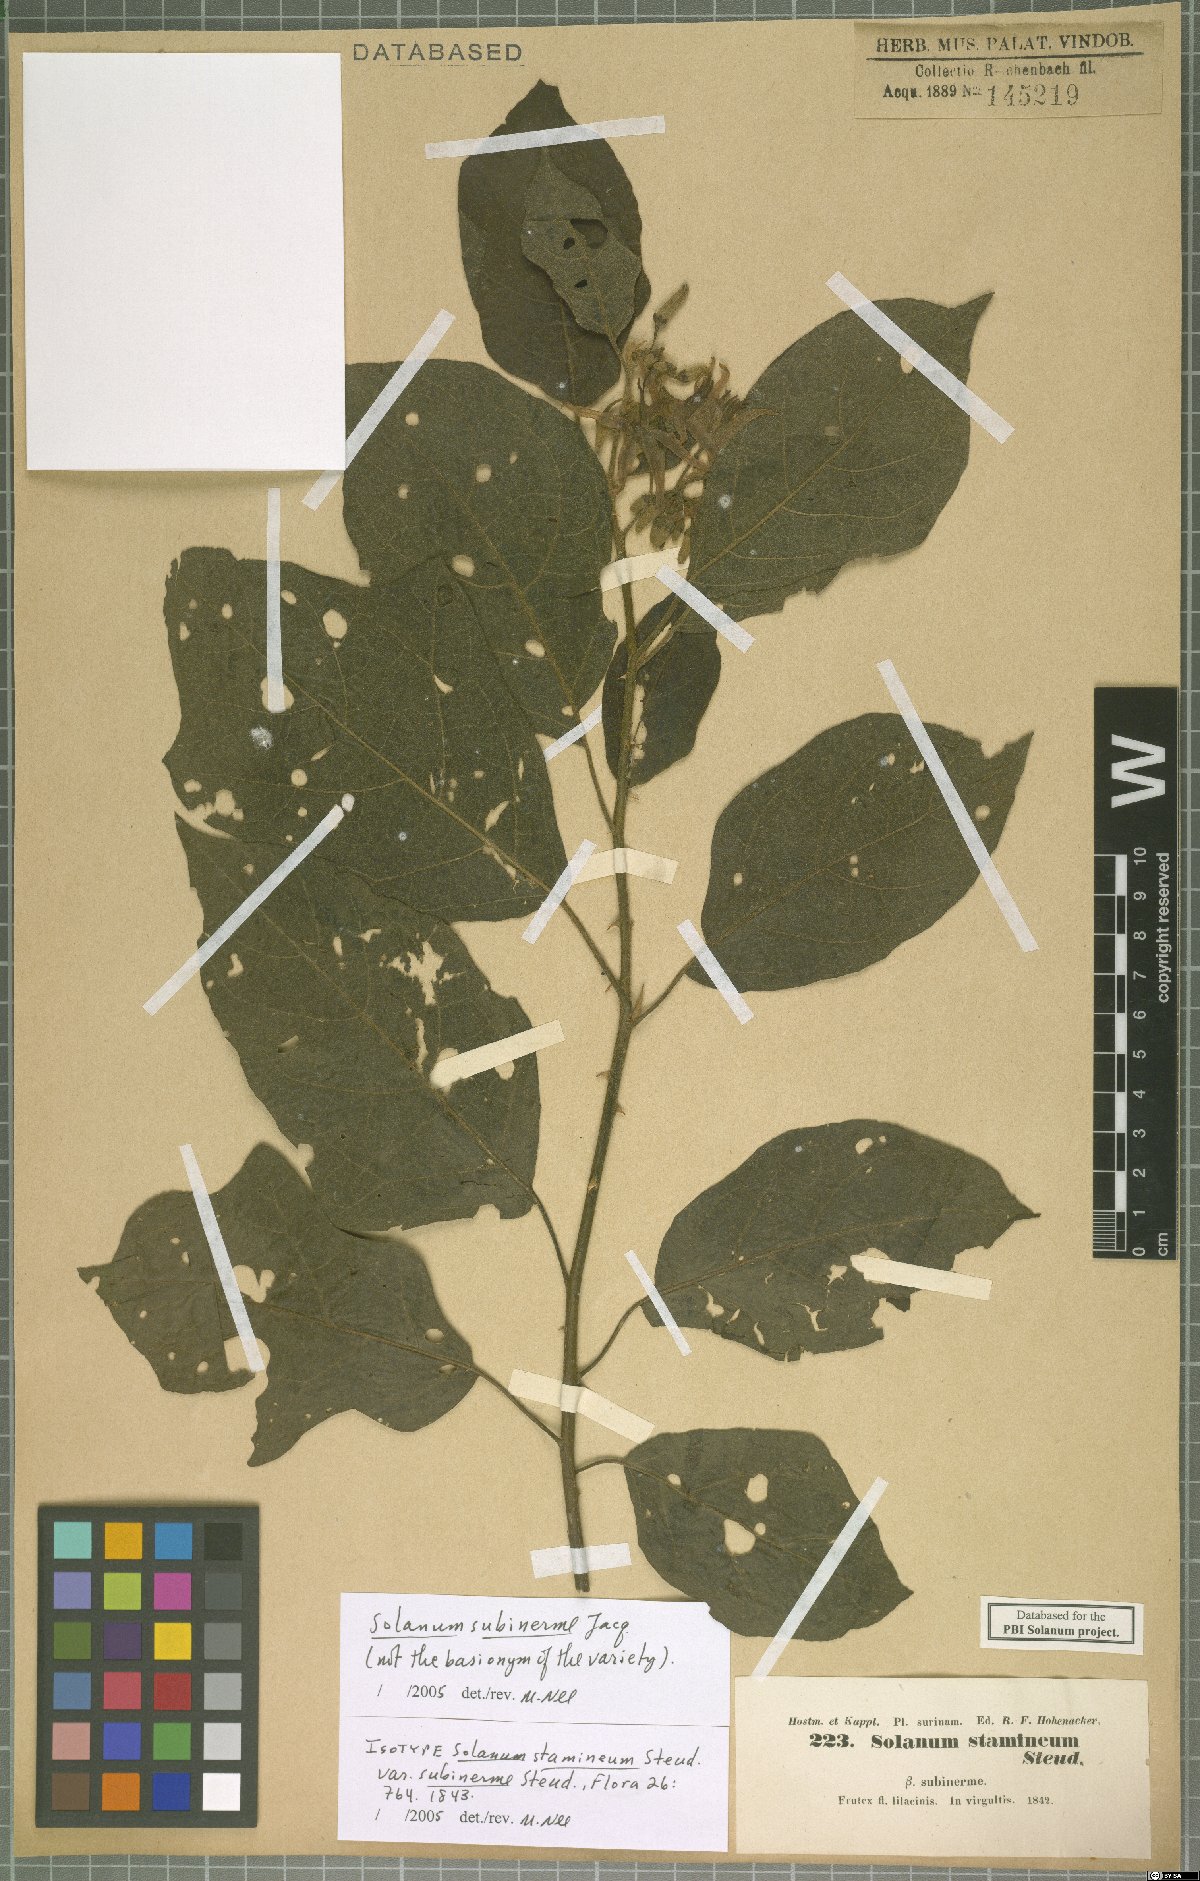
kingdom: Plantae
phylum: Tracheophyta
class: Magnoliopsida
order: Solanales
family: Solanaceae
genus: Solanum
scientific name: Solanum subinerme
